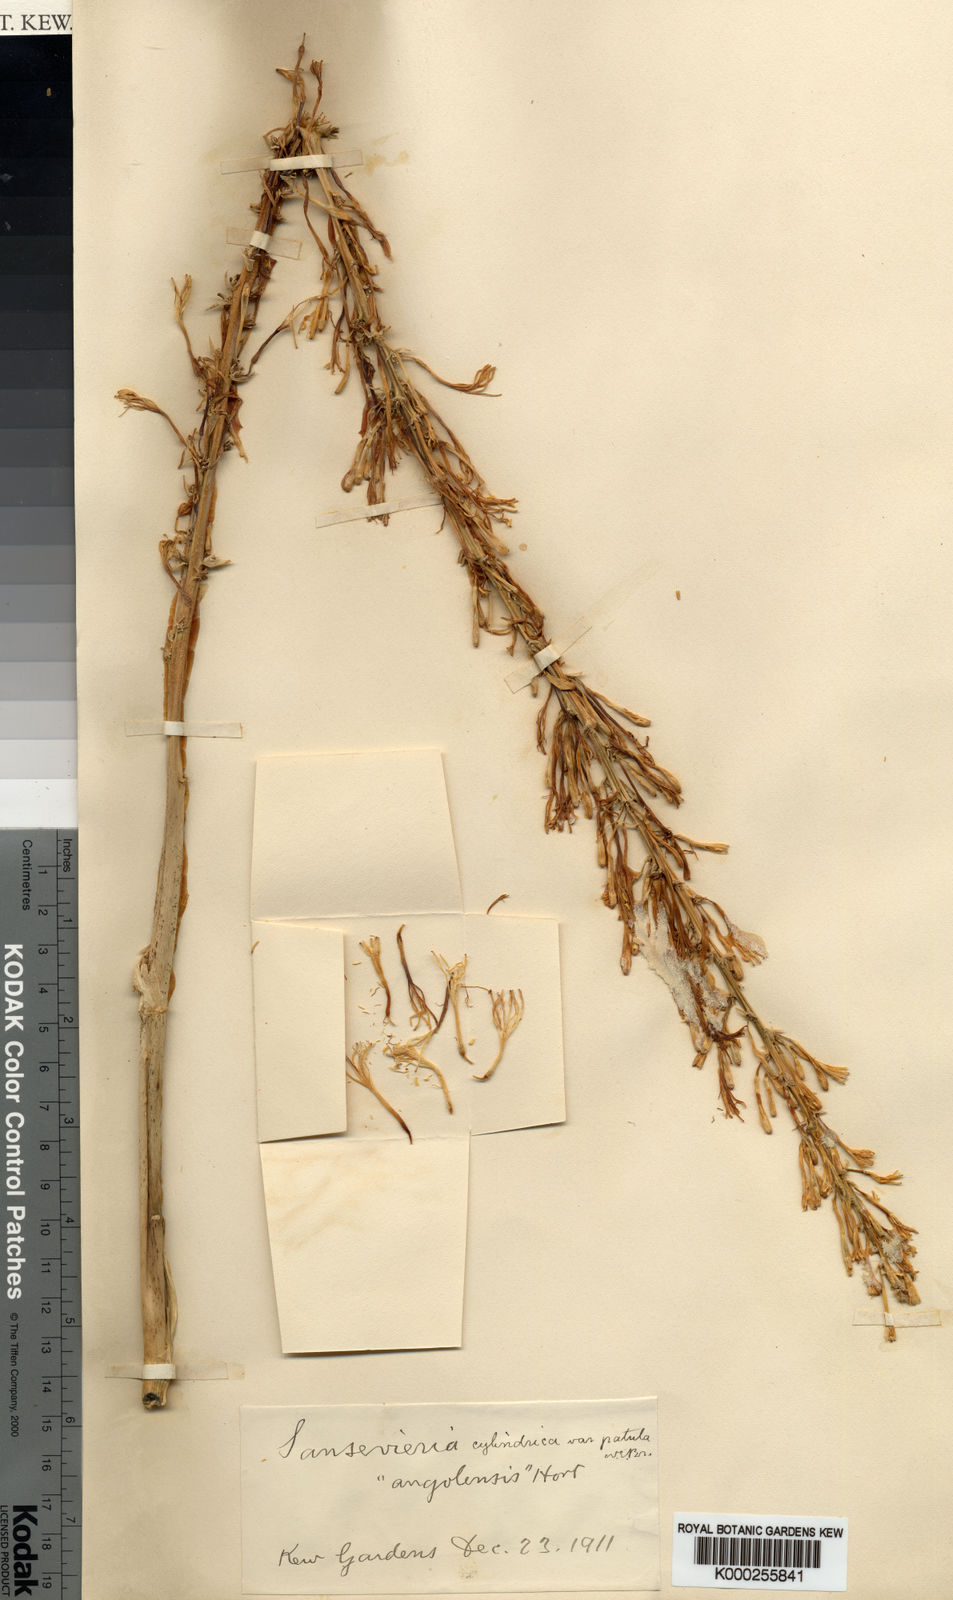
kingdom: Plantae
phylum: Tracheophyta
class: Liliopsida
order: Asparagales
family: Asparagaceae
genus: Dracaena
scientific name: Dracaena angolensis
